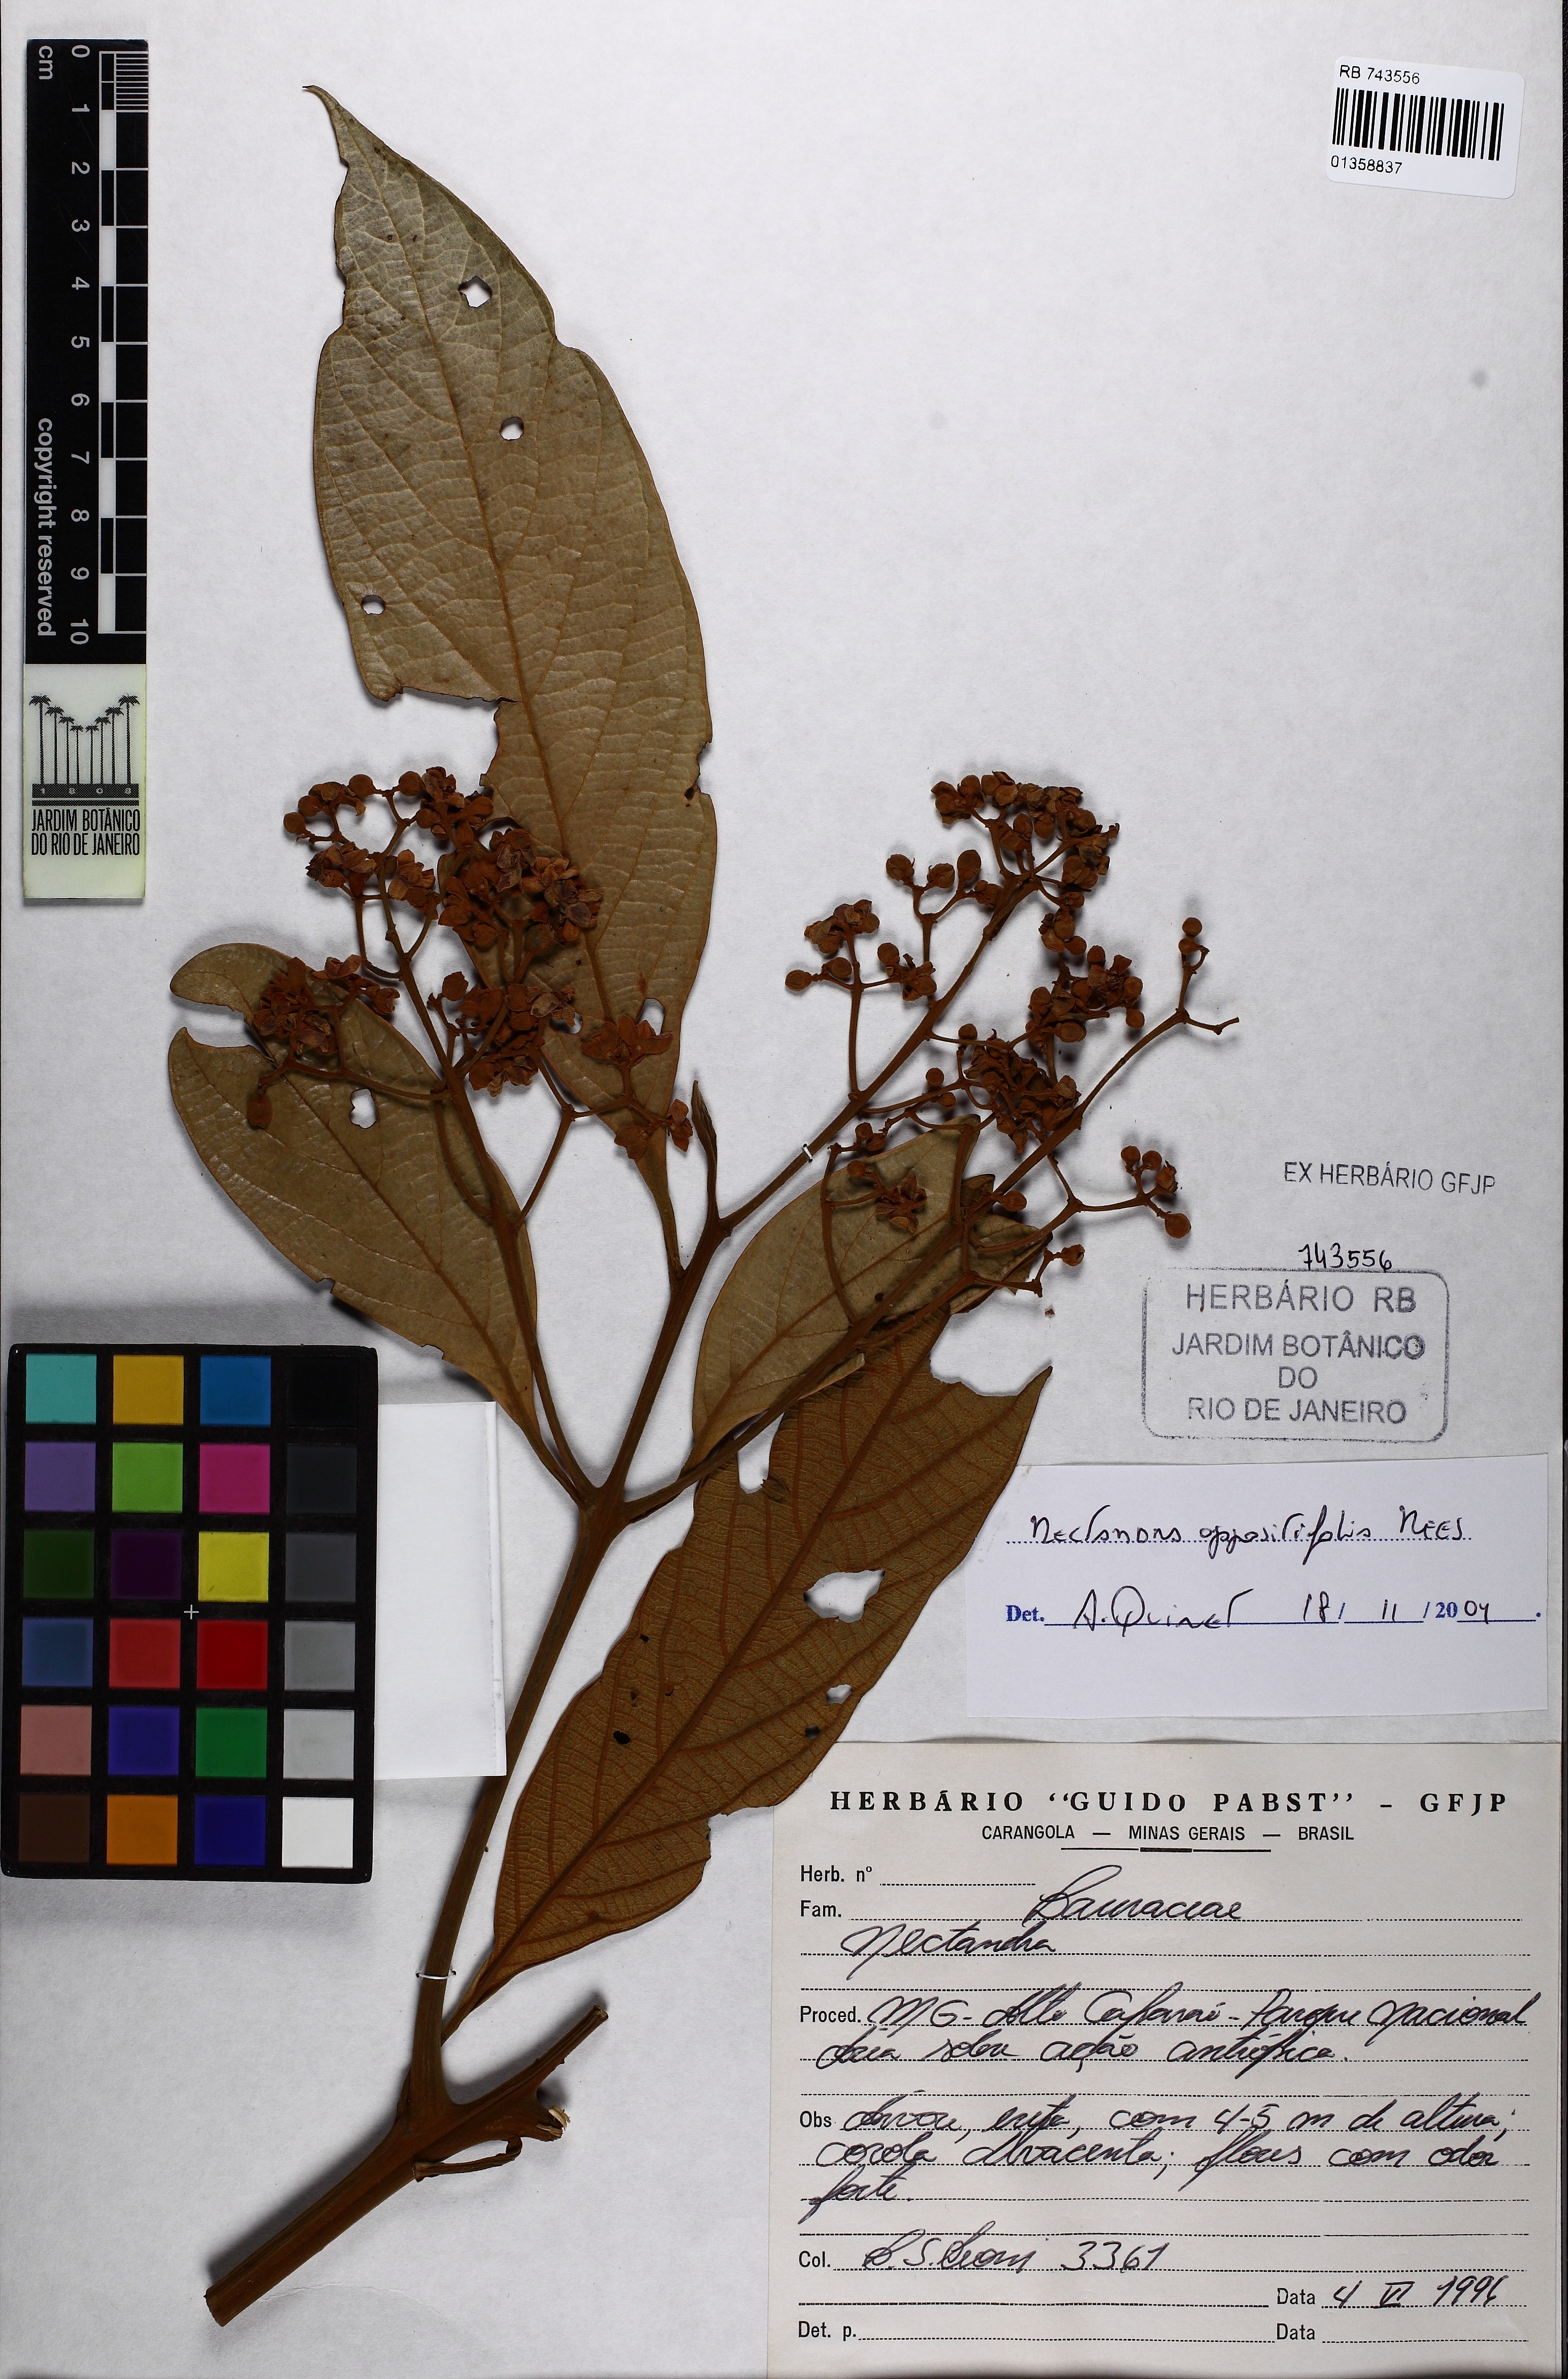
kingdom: Plantae
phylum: Tracheophyta
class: Magnoliopsida
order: Laurales
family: Lauraceae
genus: Nectandra
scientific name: Nectandra oppositifolia
